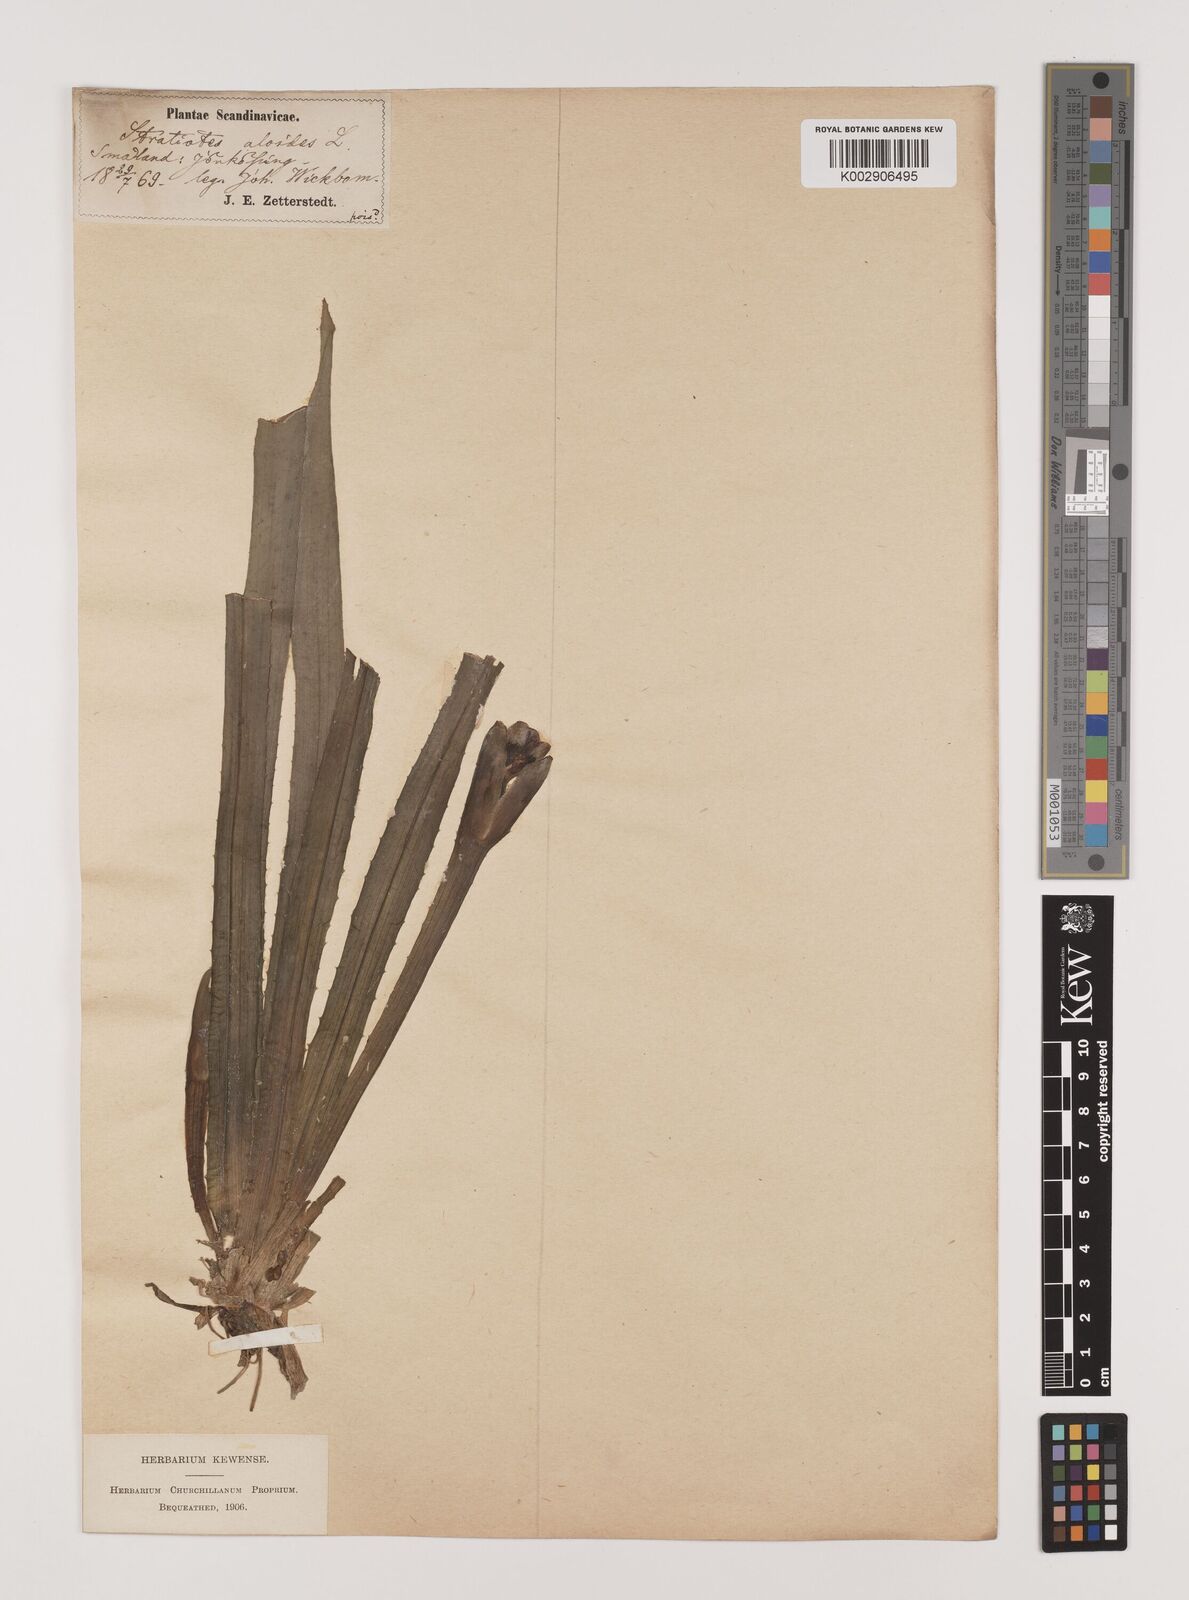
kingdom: Plantae
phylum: Tracheophyta
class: Liliopsida
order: Alismatales
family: Hydrocharitaceae
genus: Stratiotes
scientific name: Stratiotes aloides
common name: Water-soldier
